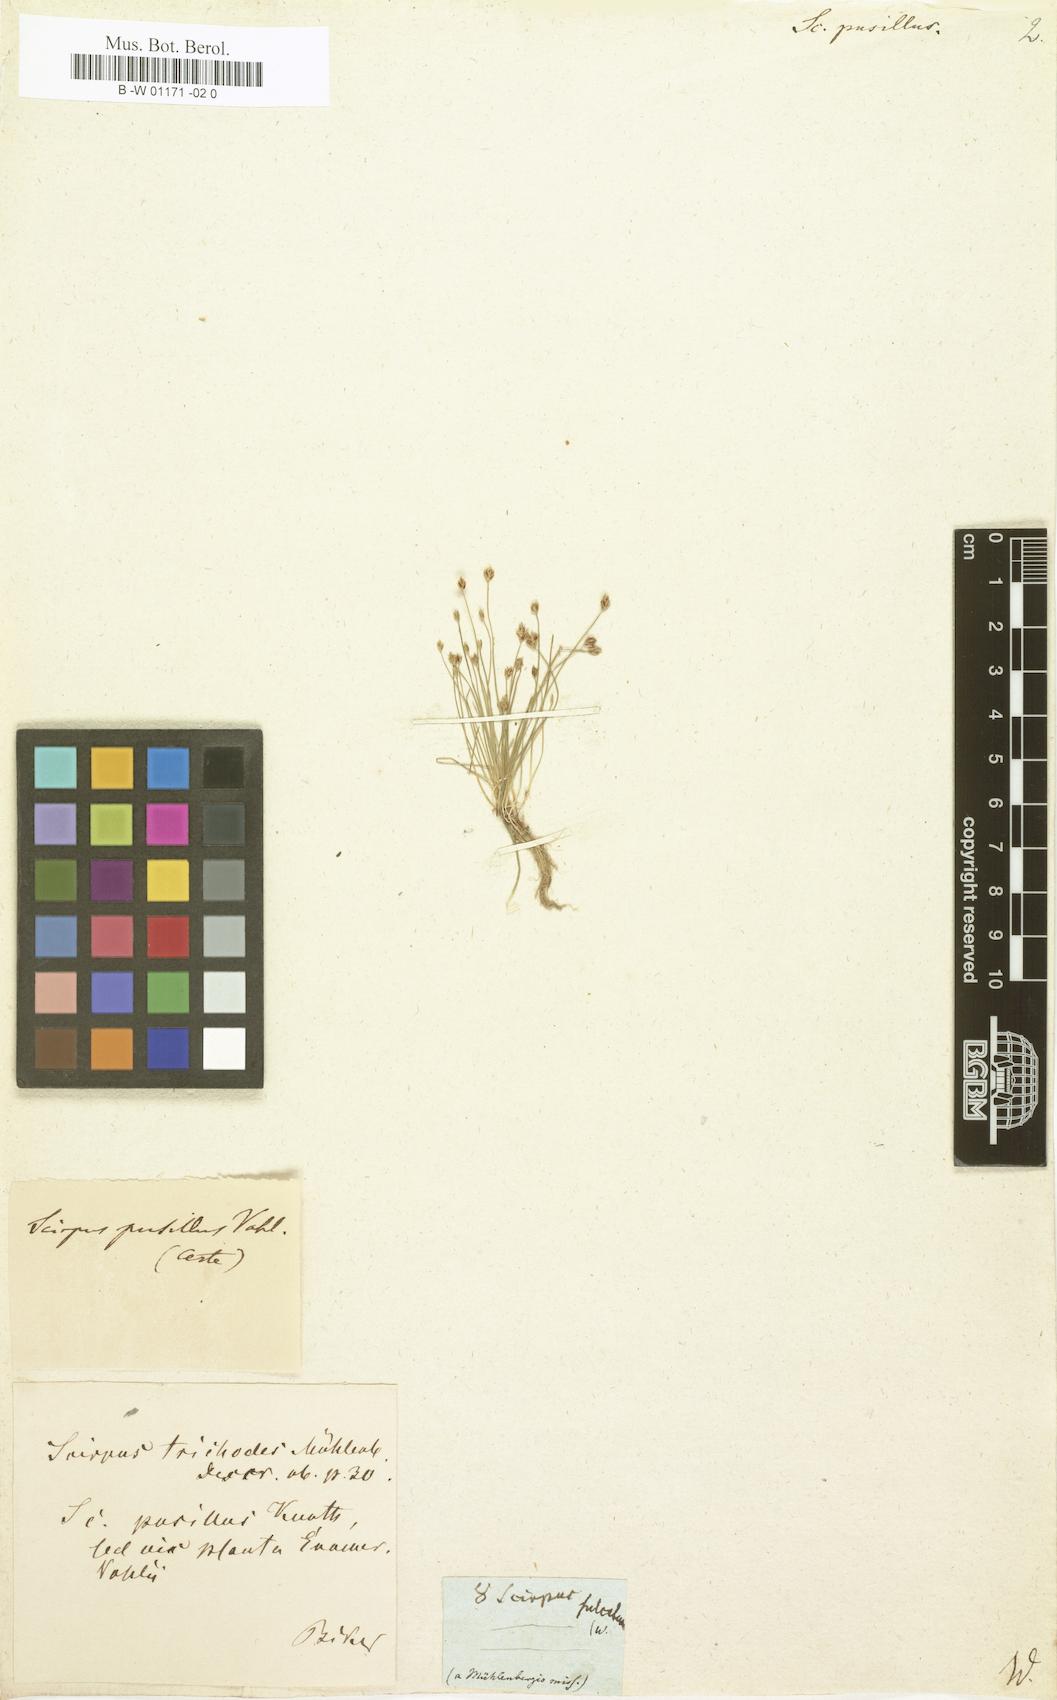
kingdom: Plantae
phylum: Tracheophyta
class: Liliopsida
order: Poales
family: Cyperaceae
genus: Eleocharis
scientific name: Eleocharis
